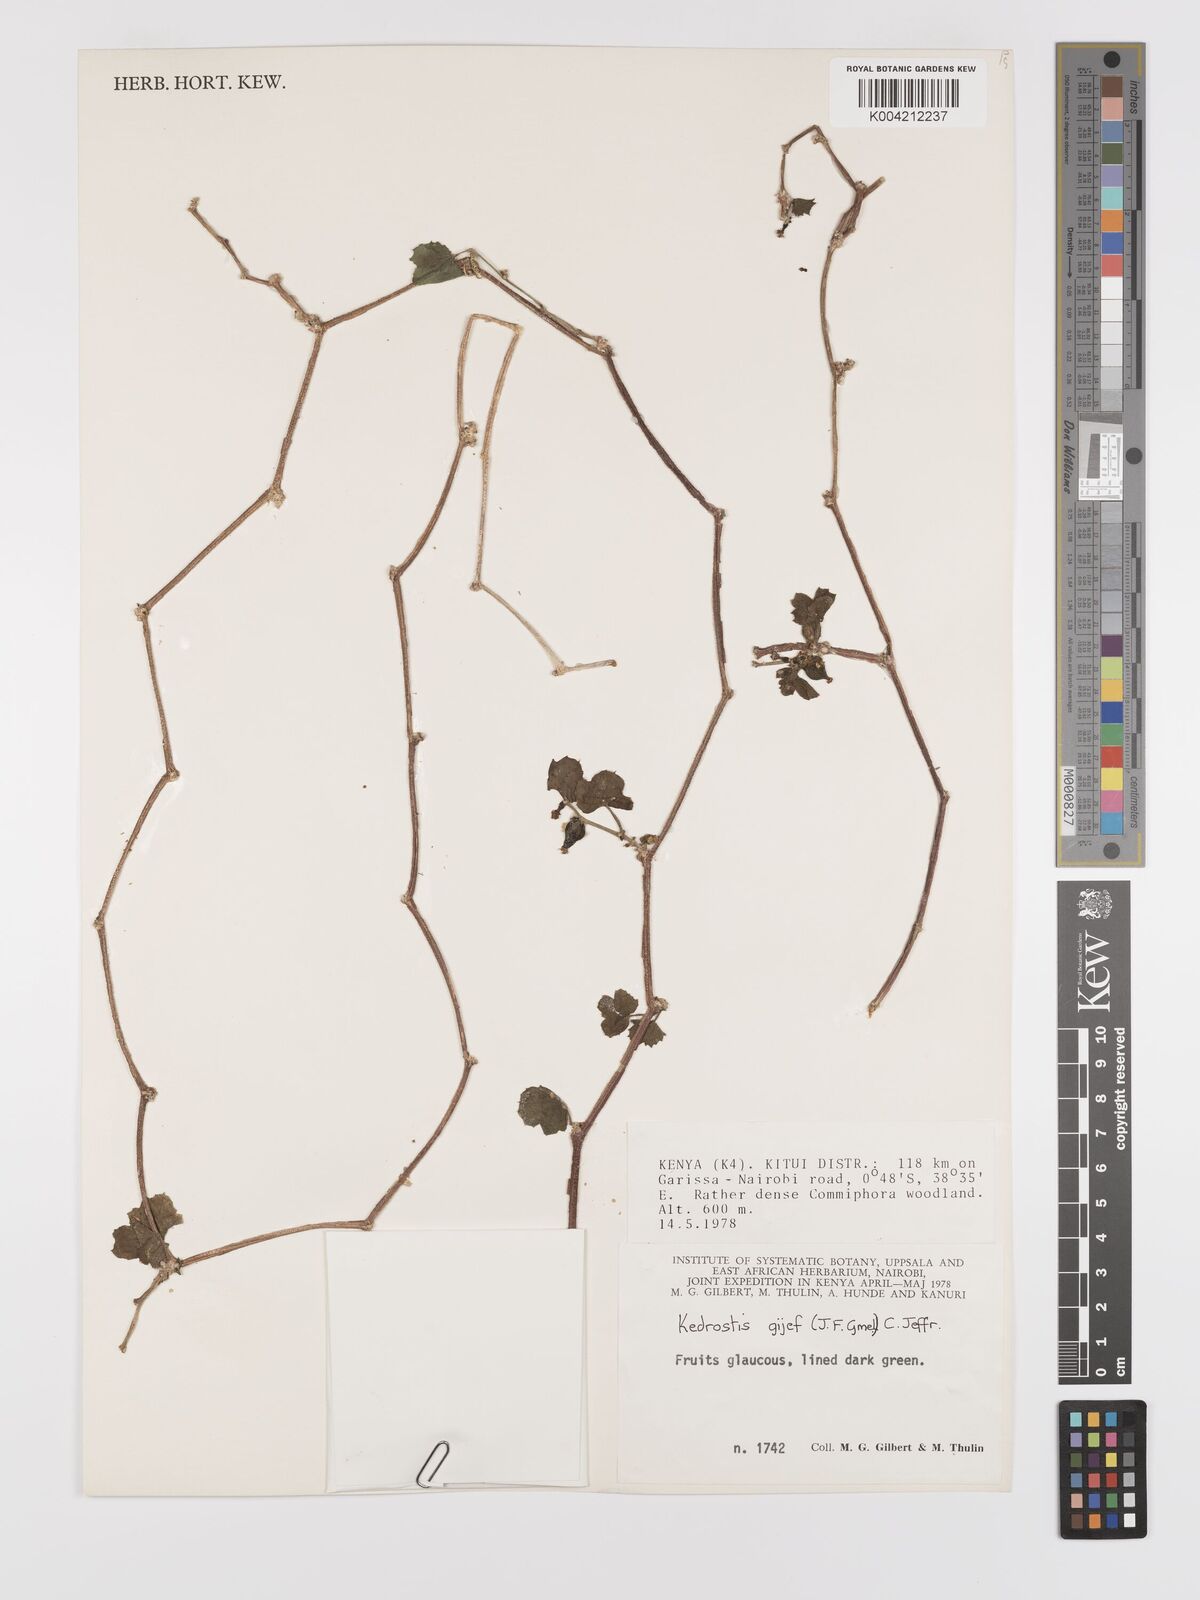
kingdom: Plantae
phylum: Tracheophyta
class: Magnoliopsida
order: Cucurbitales
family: Cucurbitaceae
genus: Kedrostis
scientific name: Kedrostis gijef
